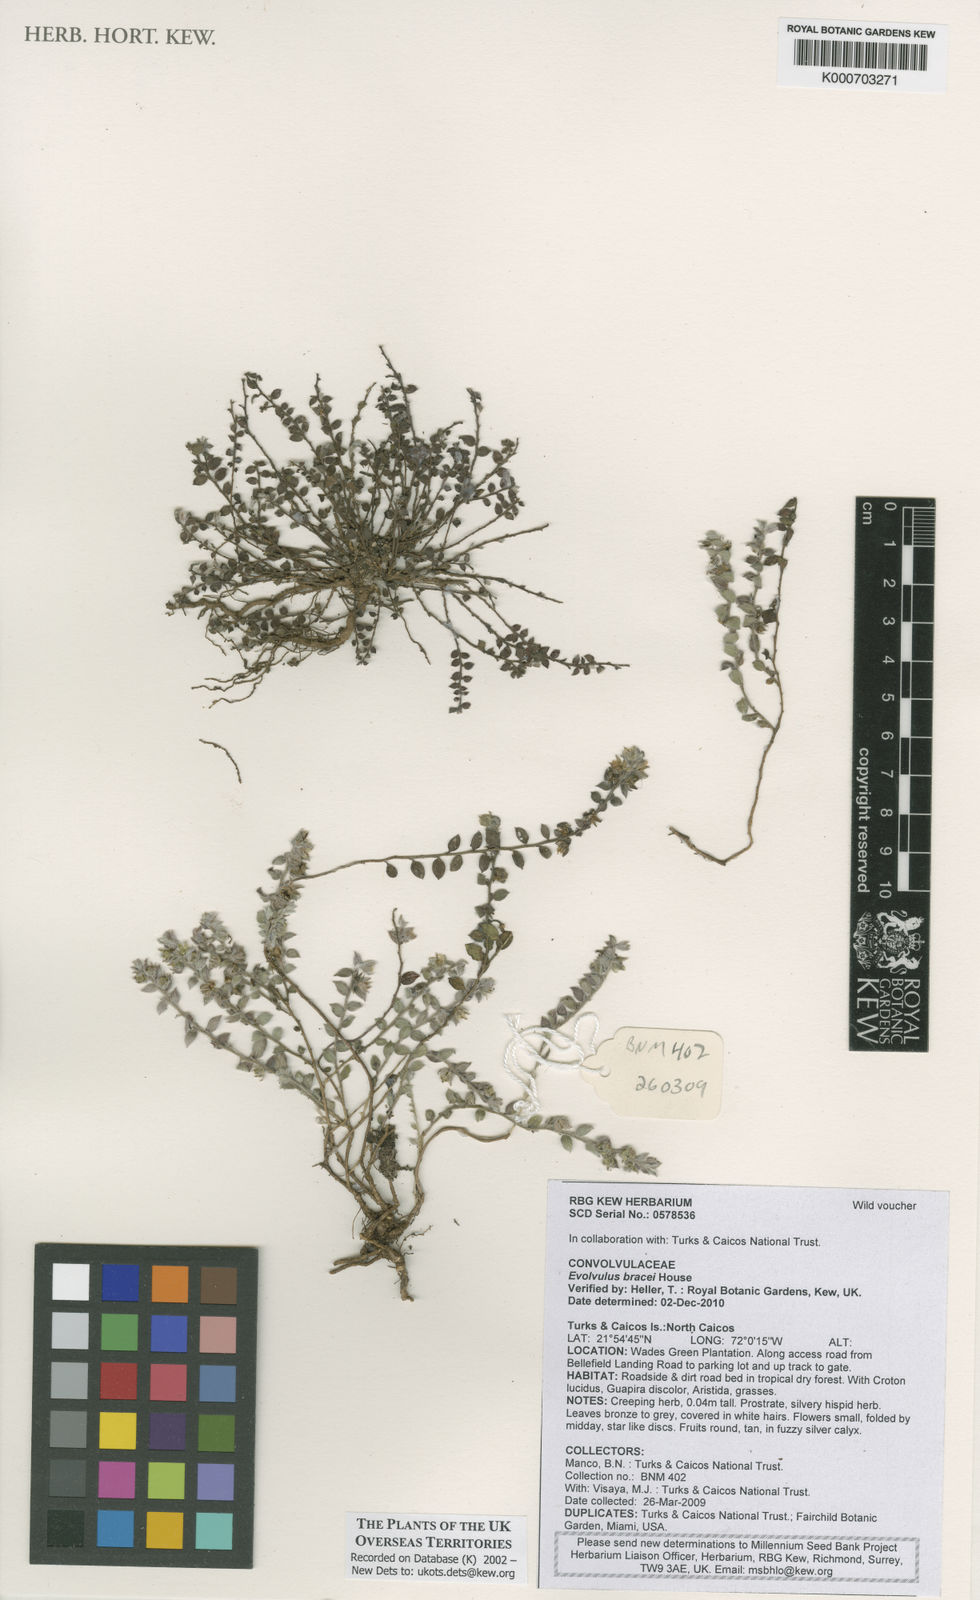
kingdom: Plantae
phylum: Tracheophyta
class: Magnoliopsida
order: Solanales
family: Convolvulaceae
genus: Evolvulus
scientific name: Evolvulus bracei
